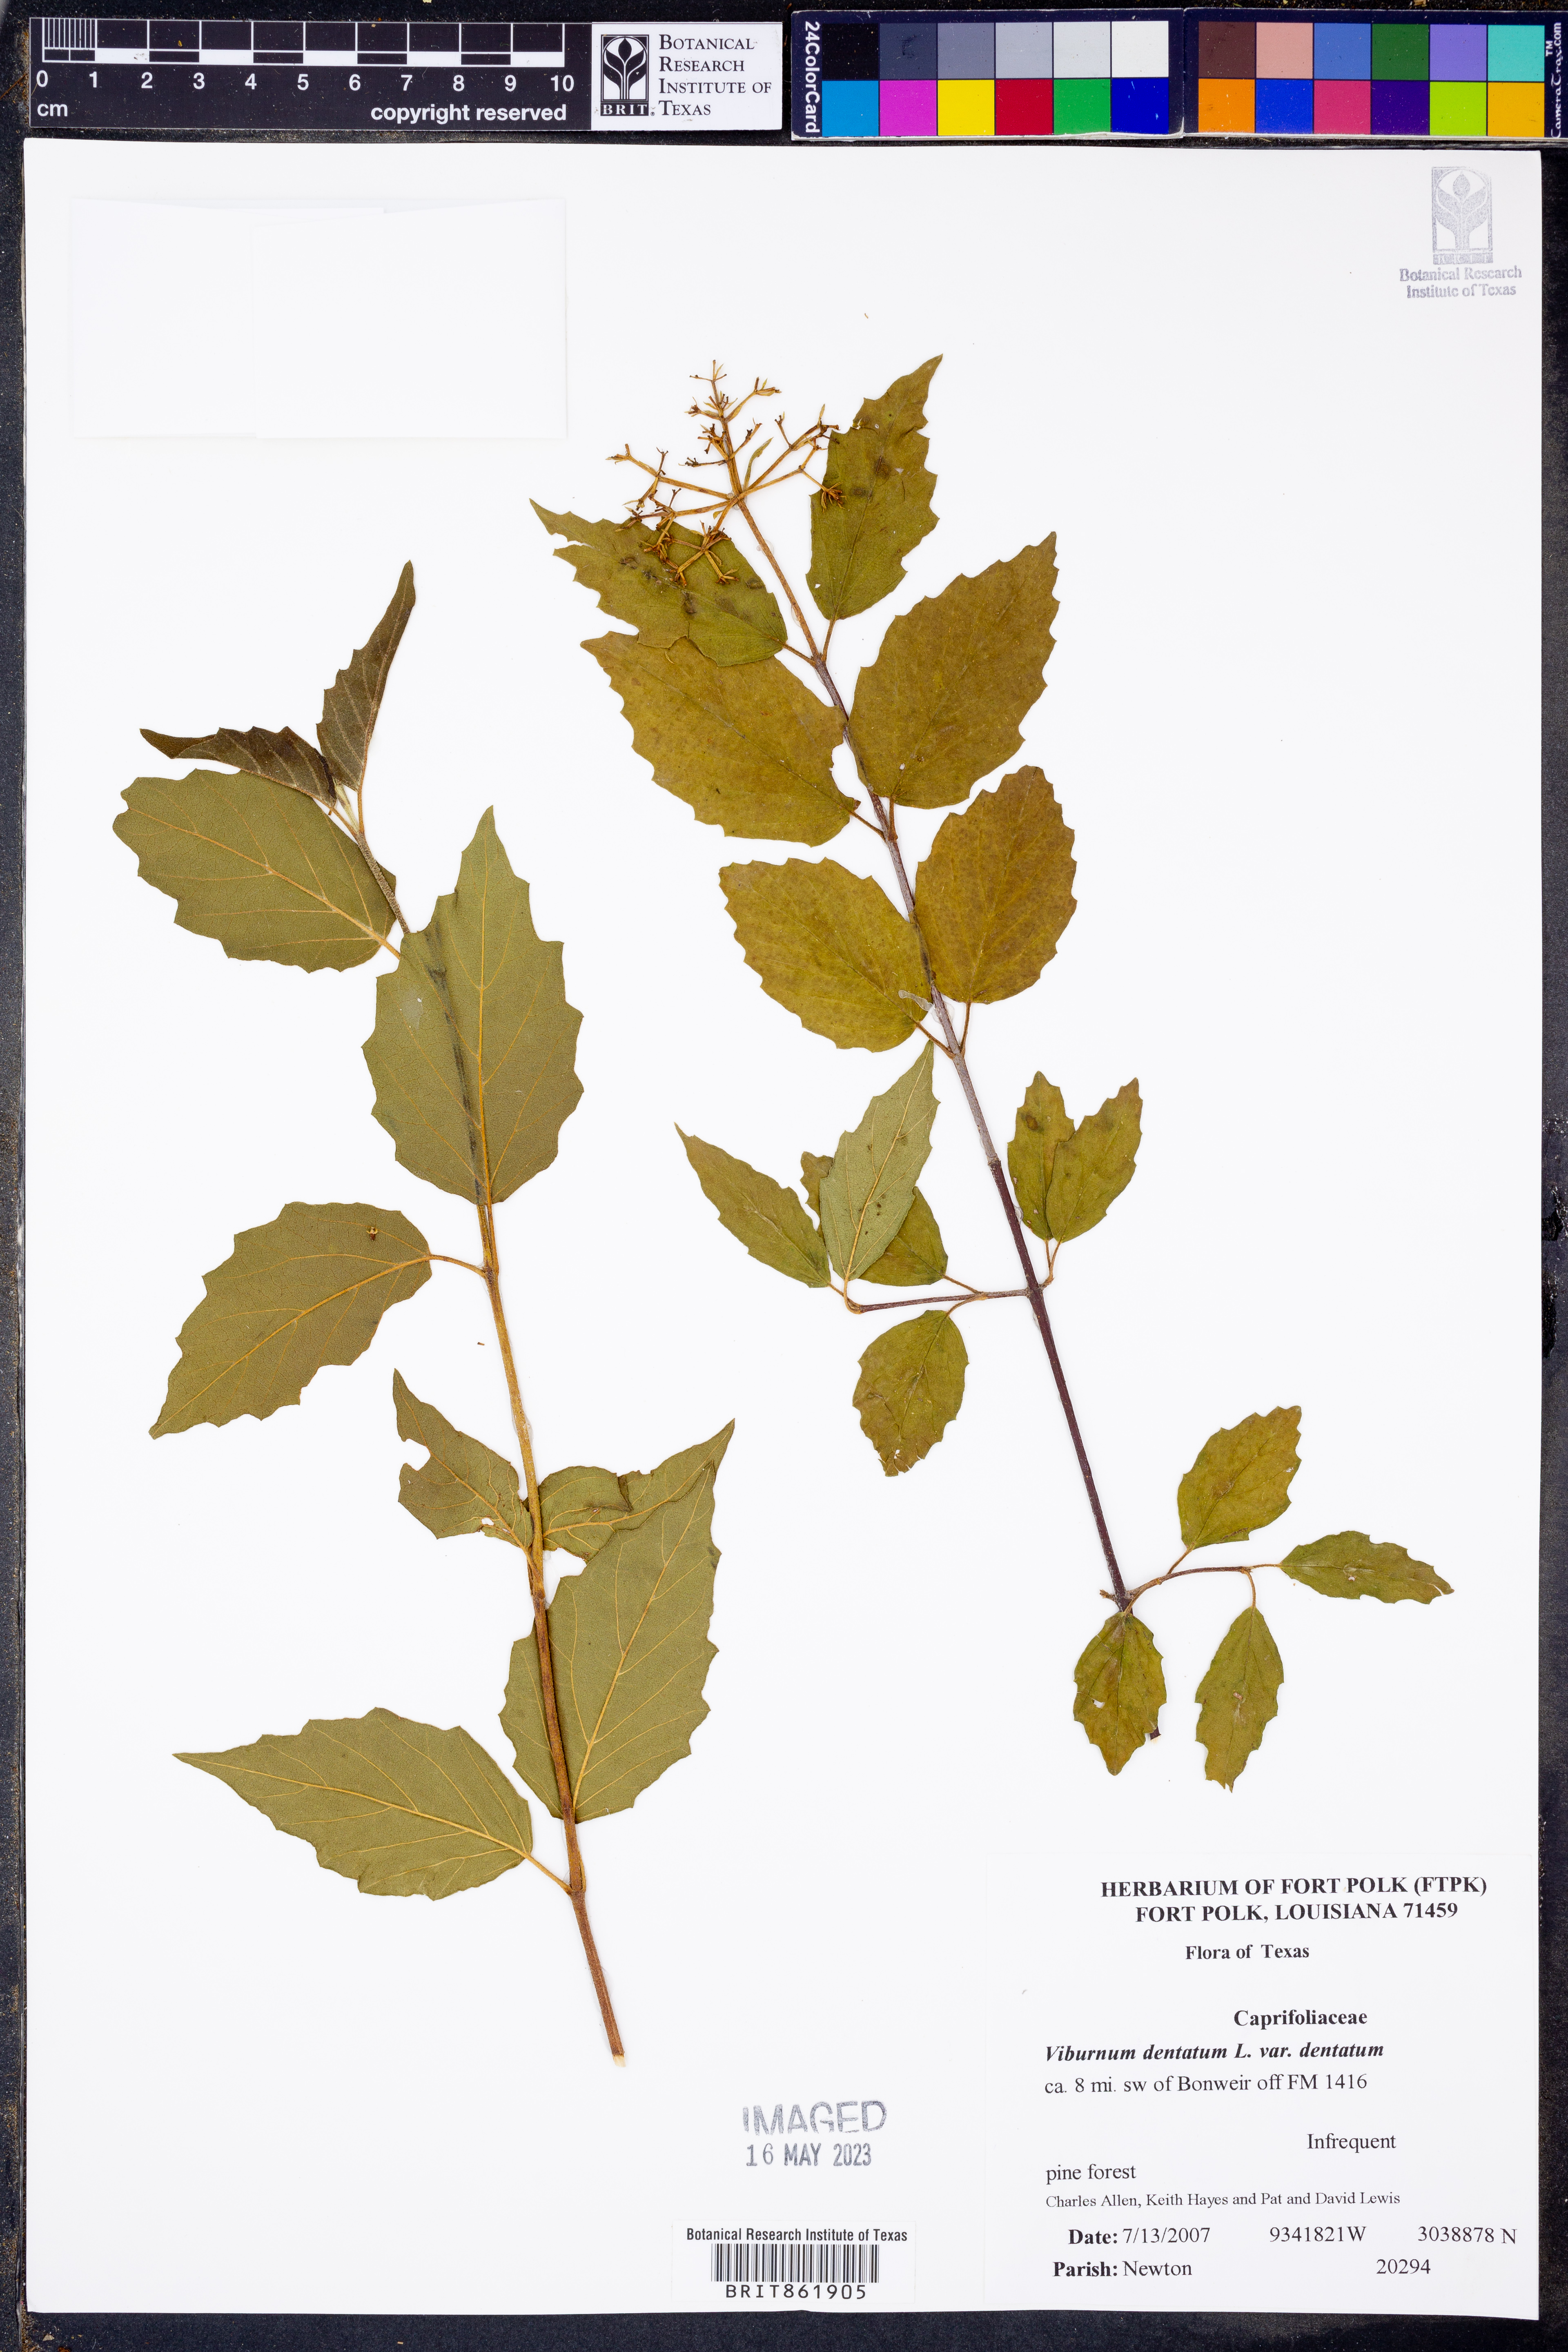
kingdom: Plantae
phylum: Tracheophyta
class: Magnoliopsida
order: Dipsacales
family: Viburnaceae
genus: Viburnum
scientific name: Viburnum dentatum
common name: Arrow-wood
